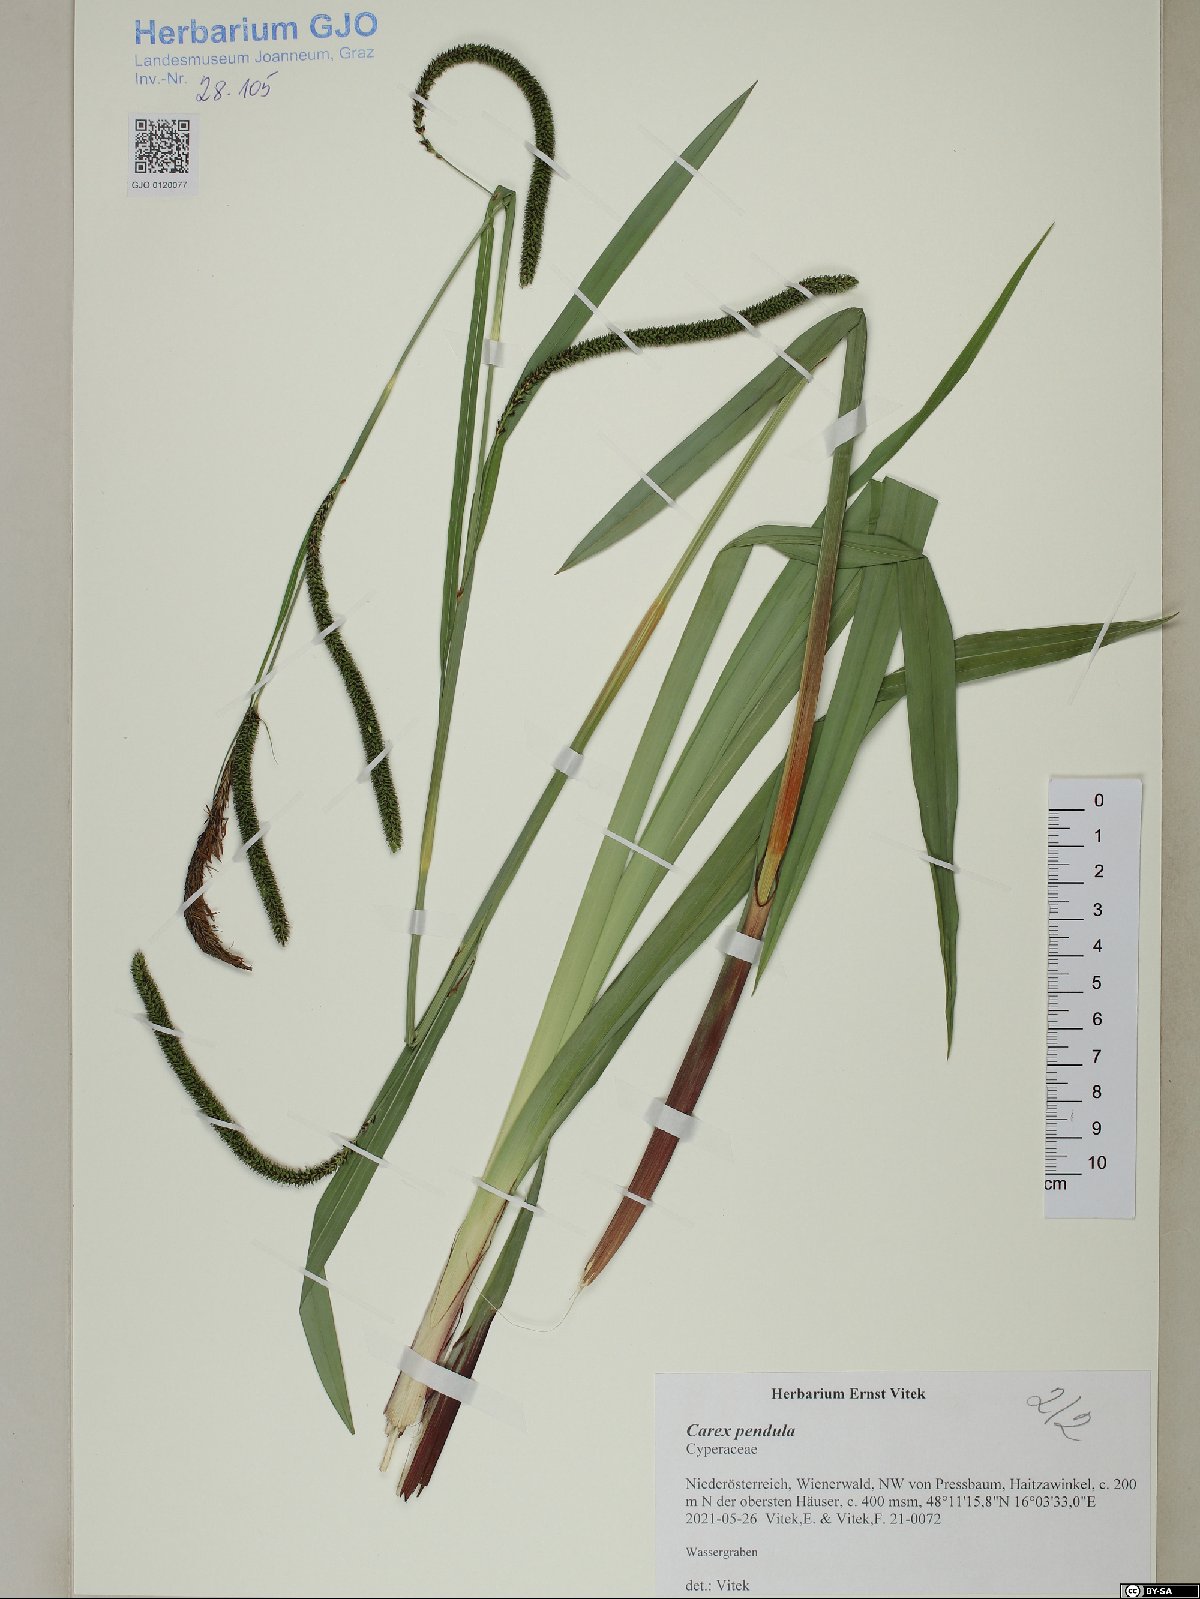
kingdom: Plantae
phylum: Tracheophyta
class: Liliopsida
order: Poales
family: Cyperaceae
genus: Carex
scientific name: Carex pendula
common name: Pendulous sedge
